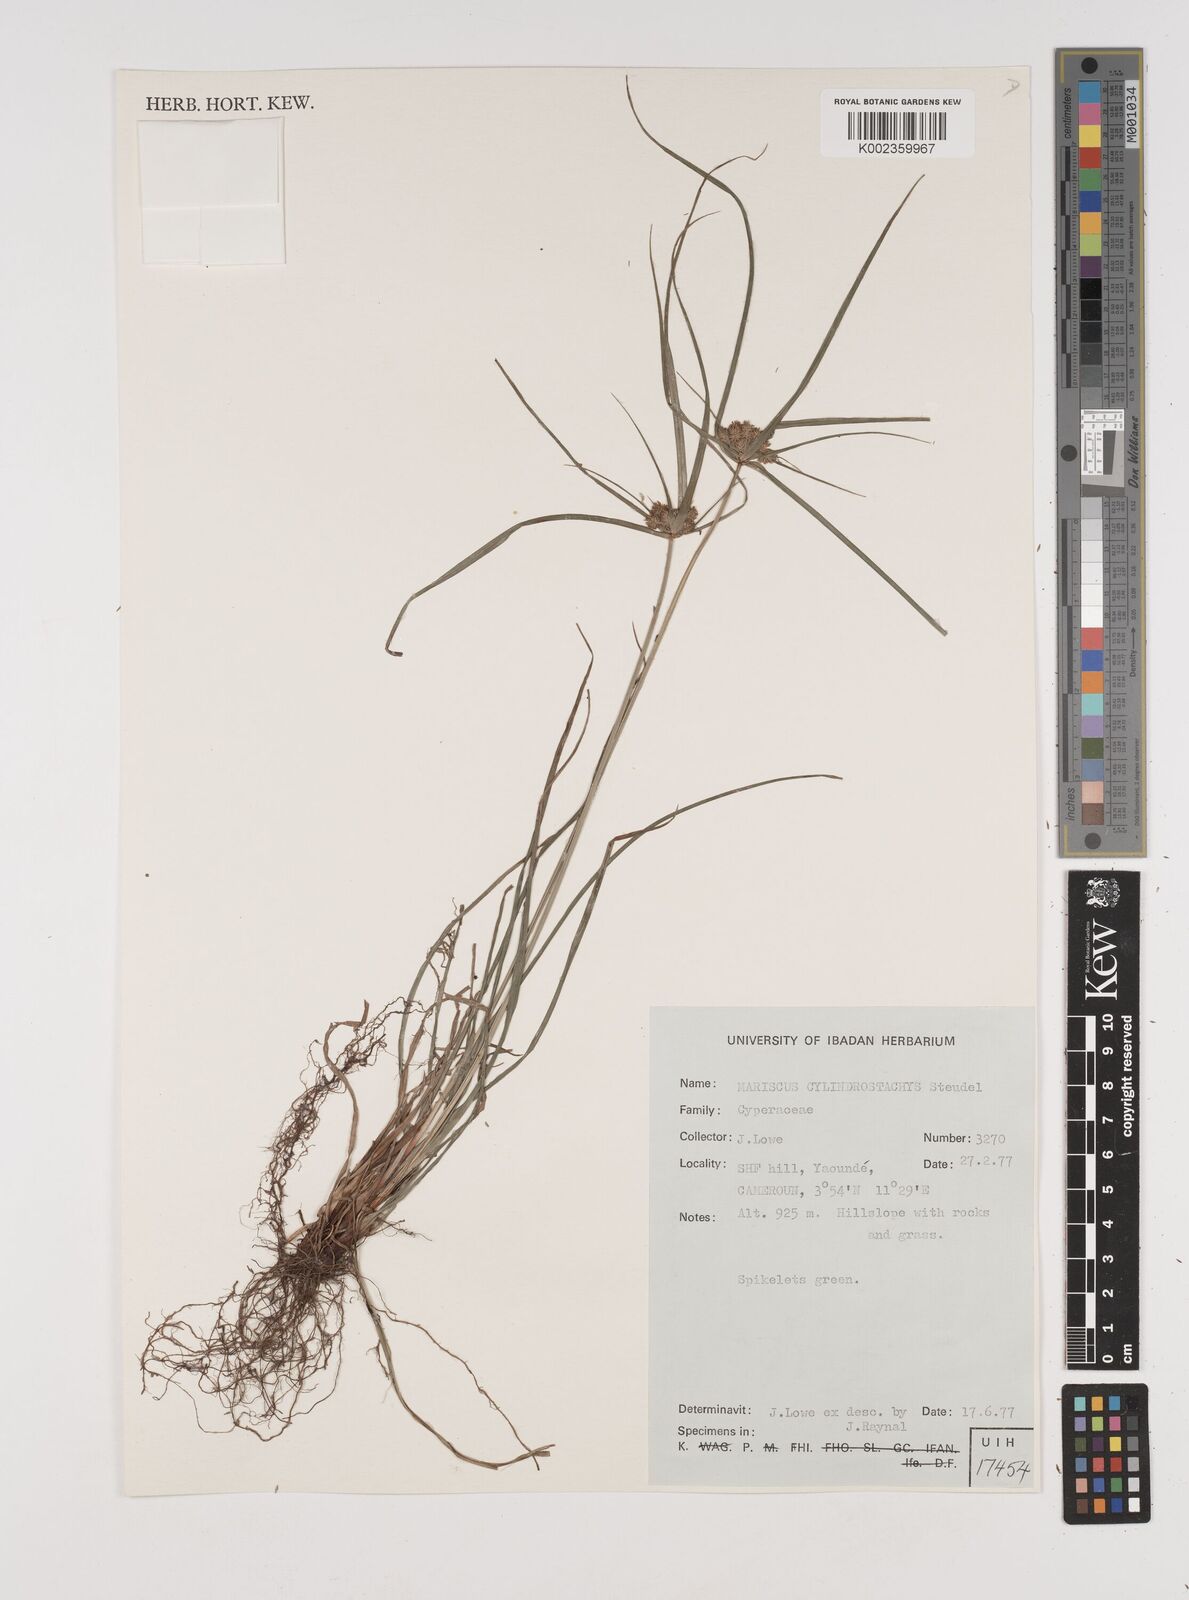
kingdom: Plantae
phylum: Tracheophyta
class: Liliopsida
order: Poales
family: Cyperaceae
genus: Cyperus
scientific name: Cyperus cyperoides
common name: Pacific island flat sedge
